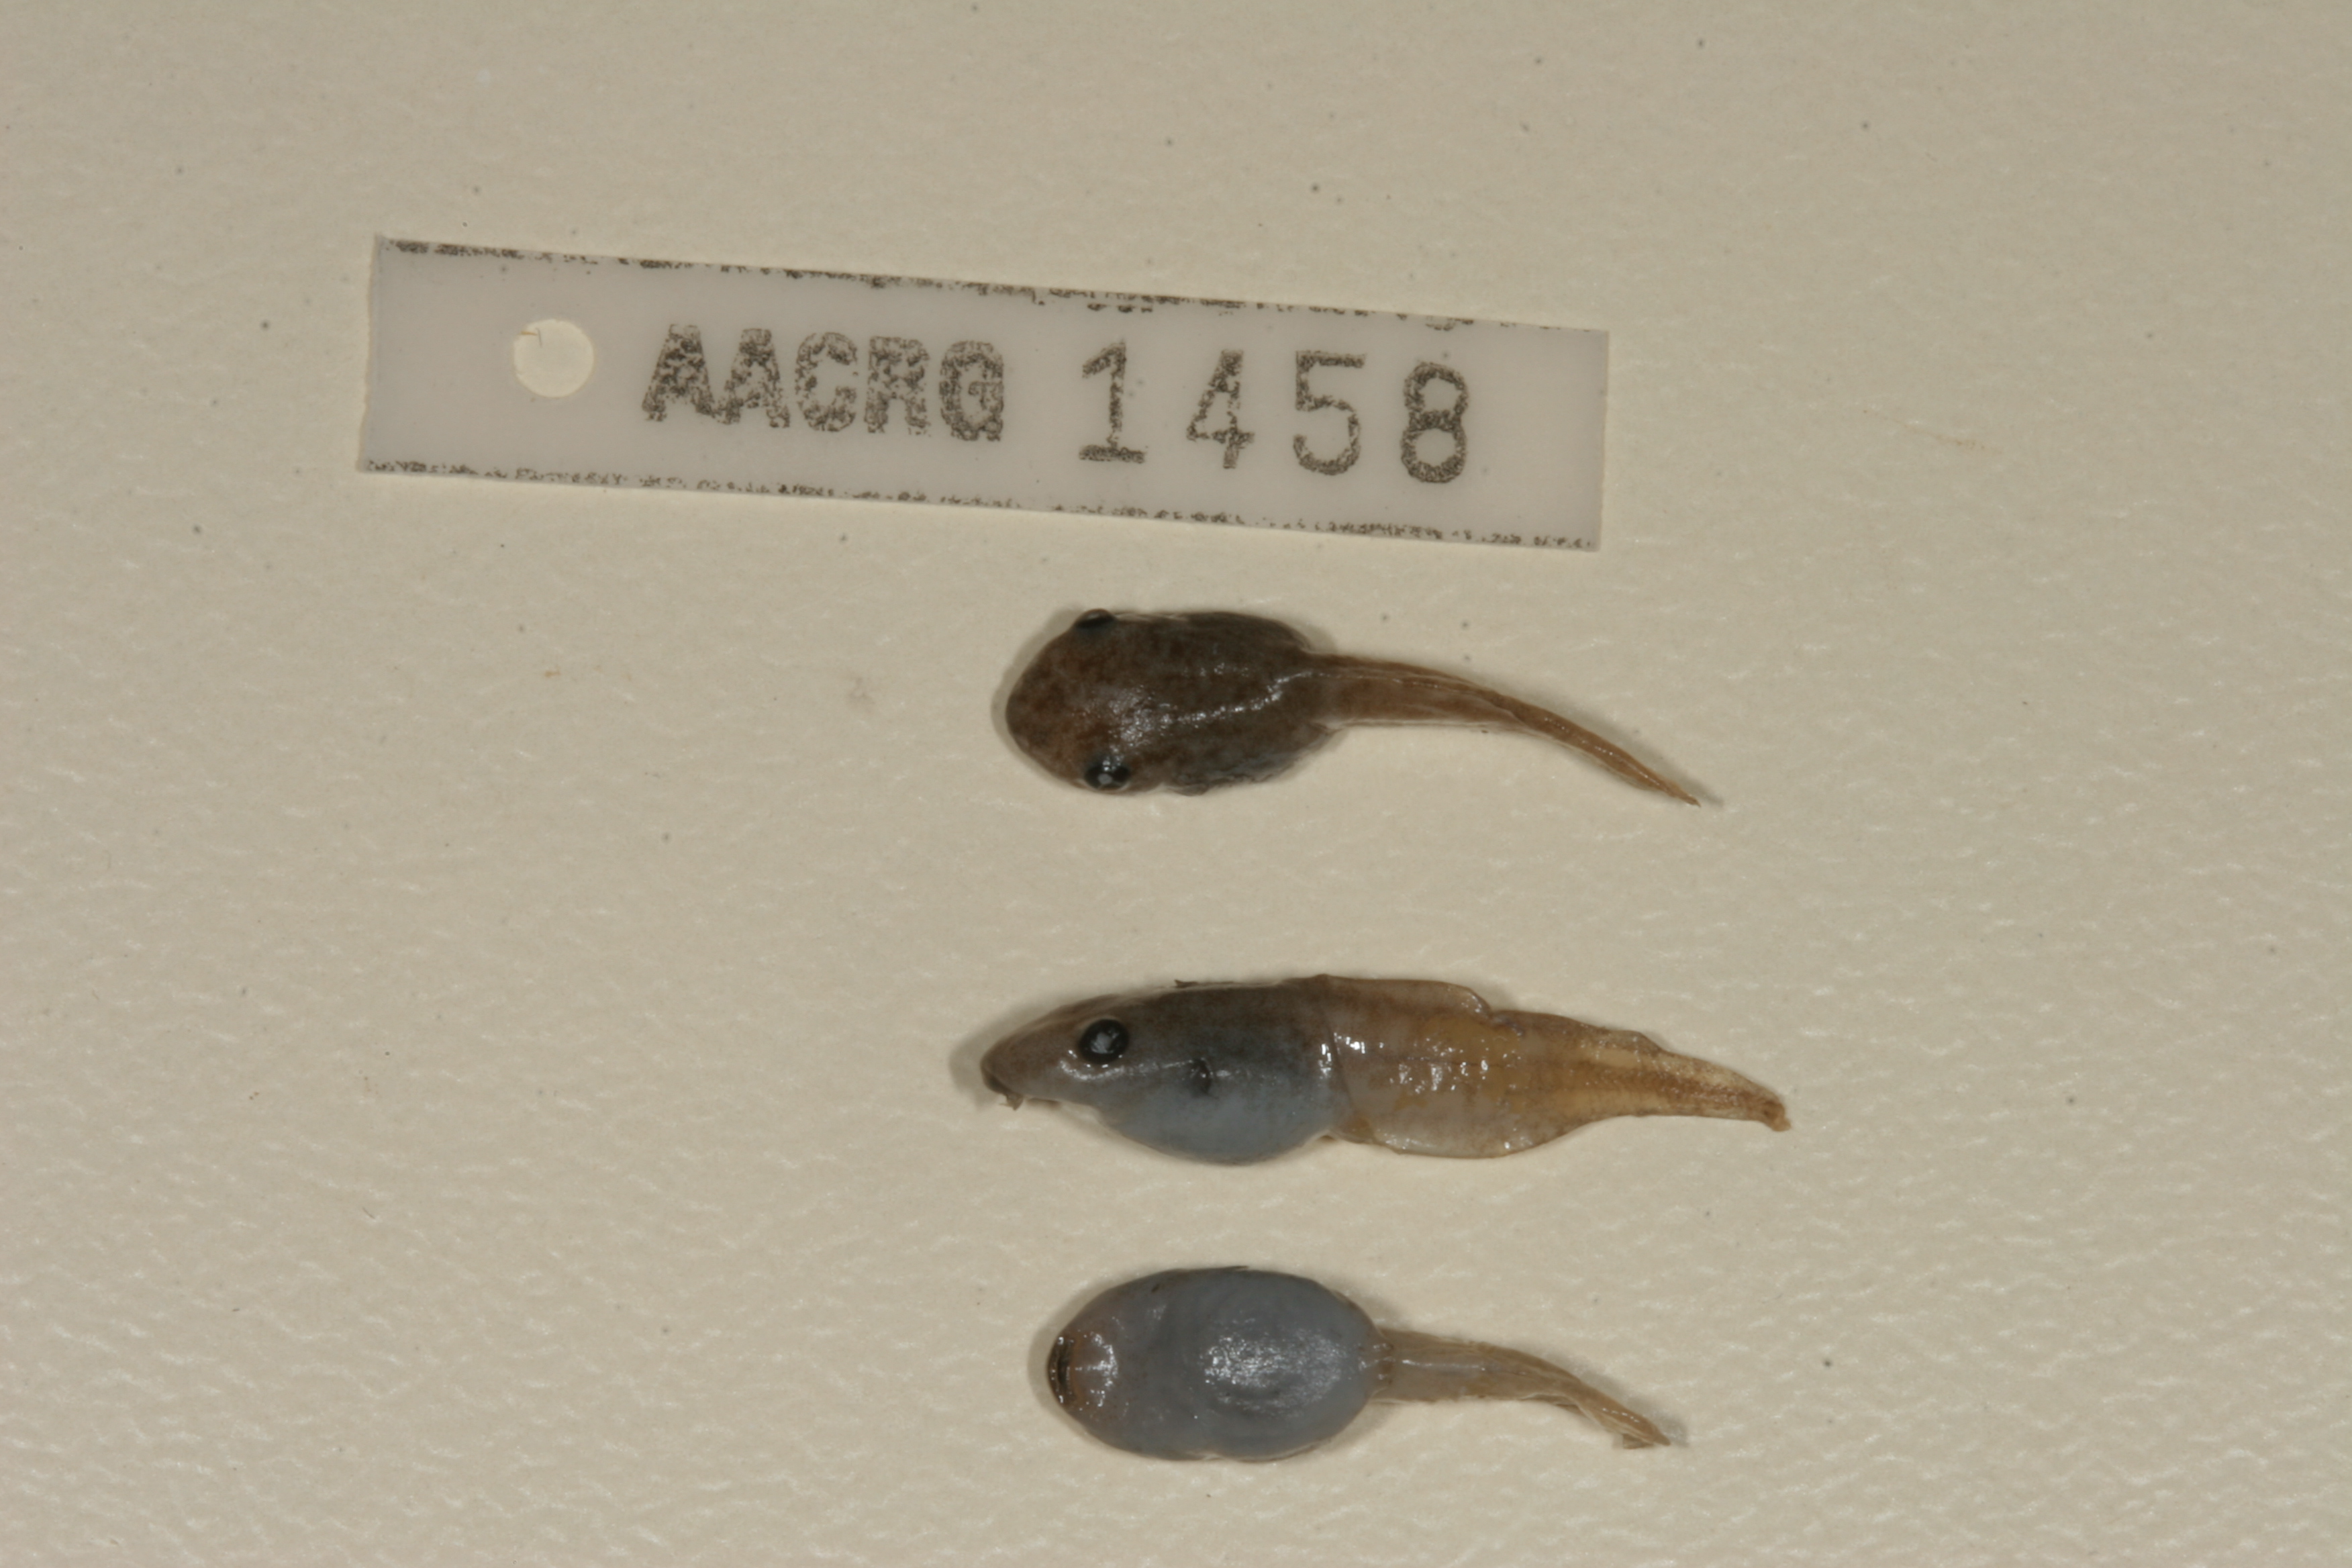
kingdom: Animalia
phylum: Chordata
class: Amphibia
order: Anura
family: Hemisotidae
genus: Hemisus
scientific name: Hemisus marmoratus
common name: Mottled shovel-nosed frog
